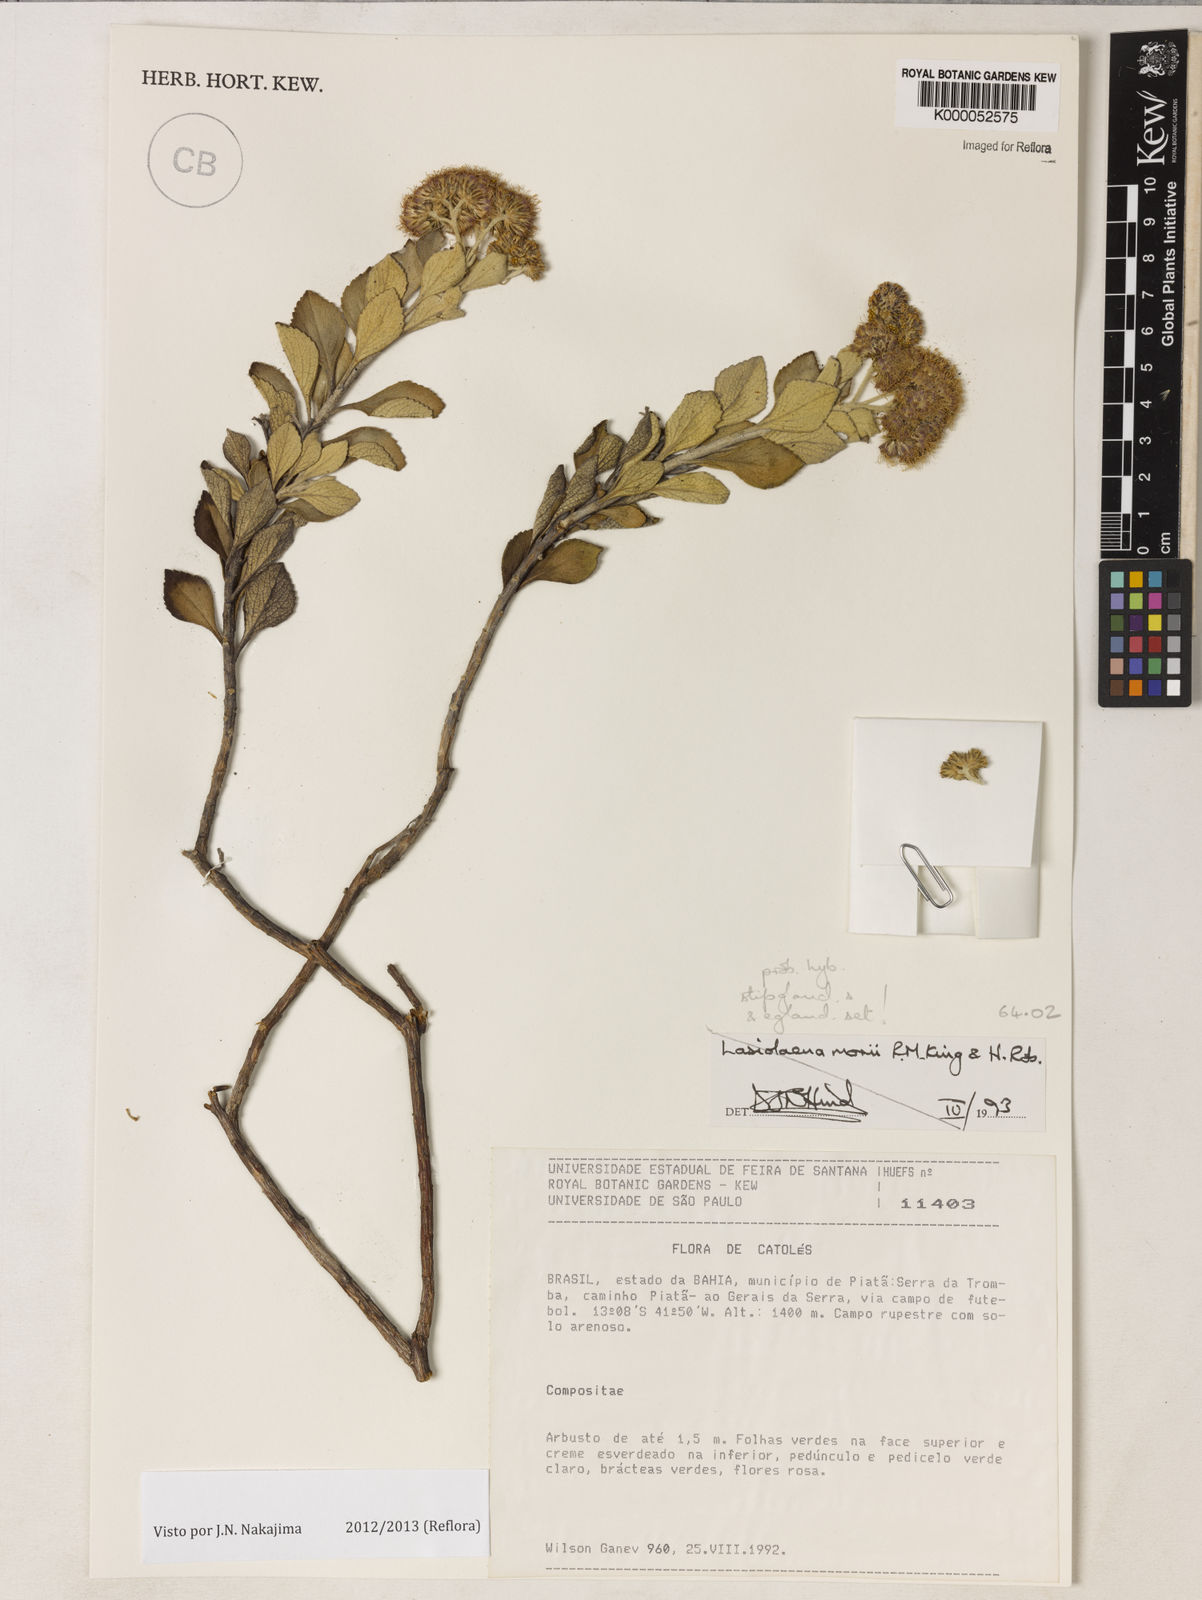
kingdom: Plantae
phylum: Tracheophyta
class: Magnoliopsida
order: Asterales
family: Asteraceae
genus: Lasiolaena
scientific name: Lasiolaena
